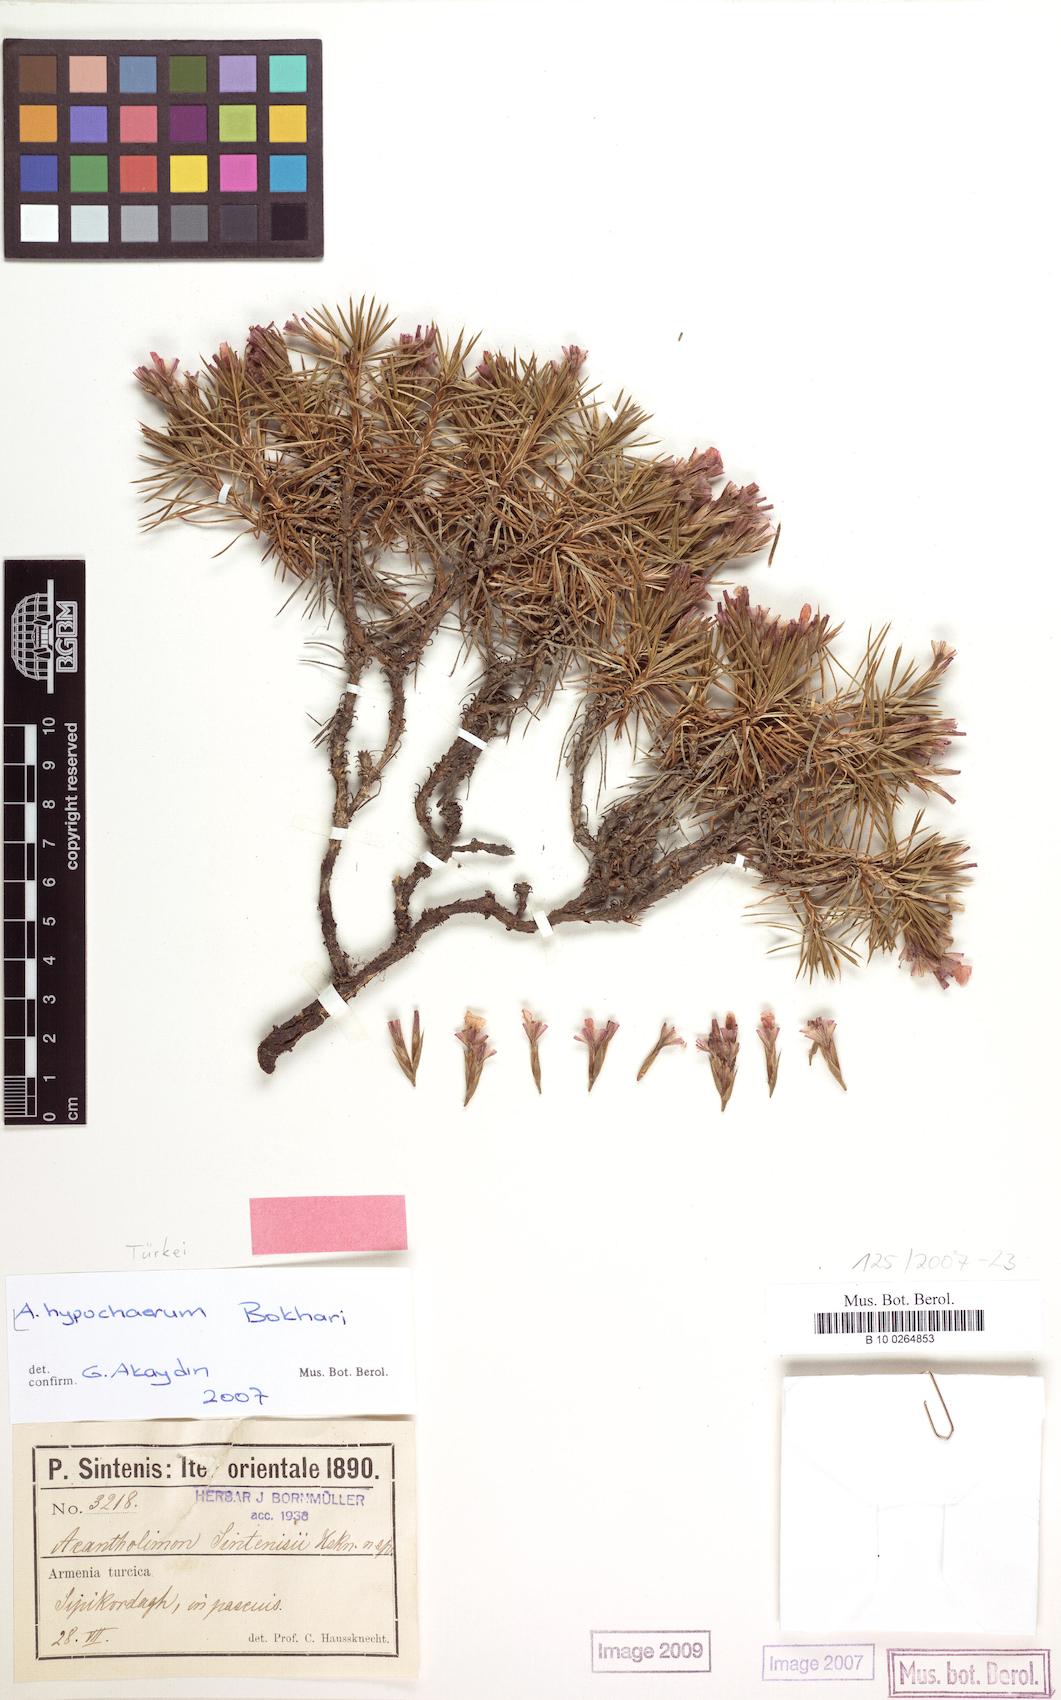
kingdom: Plantae
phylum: Tracheophyta
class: Magnoliopsida
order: Caryophyllales
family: Plumbaginaceae
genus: Acantholimon
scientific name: Acantholimon hypochaerum
